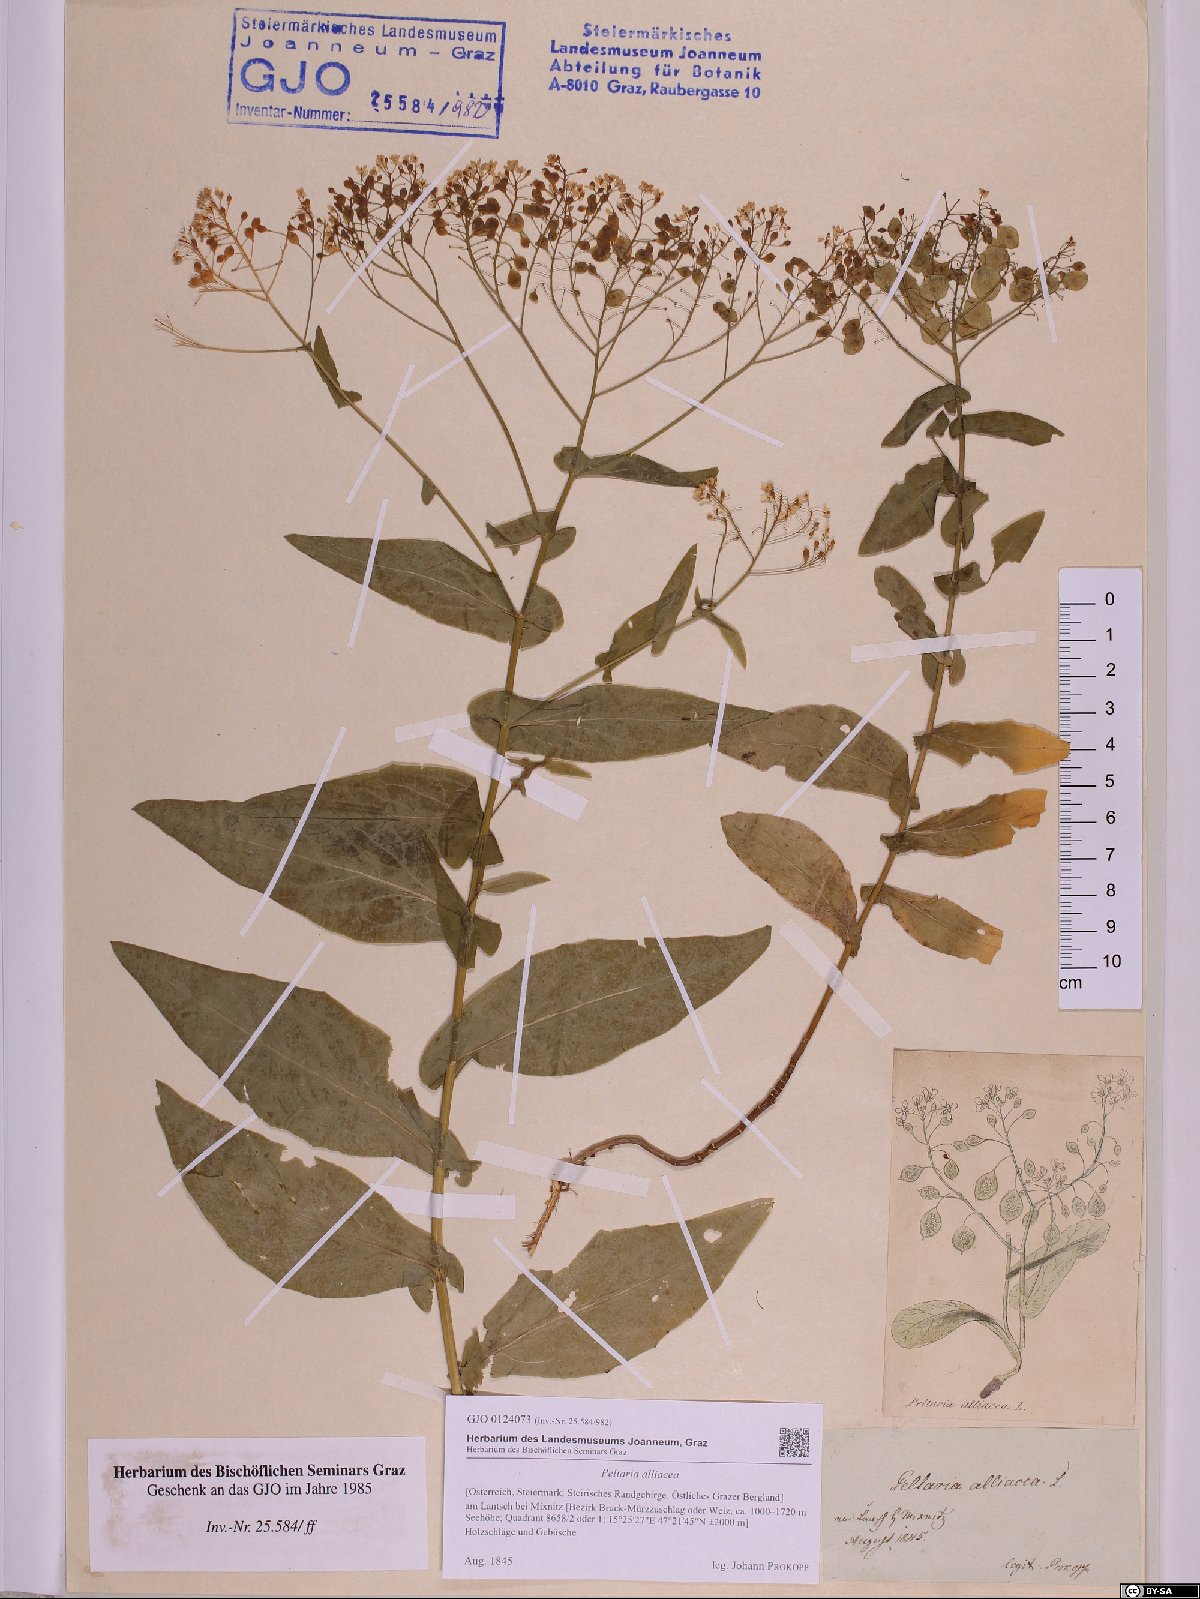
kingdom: Plantae
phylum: Tracheophyta
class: Magnoliopsida
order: Brassicales
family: Brassicaceae
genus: Peltaria
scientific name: Peltaria alliacea
